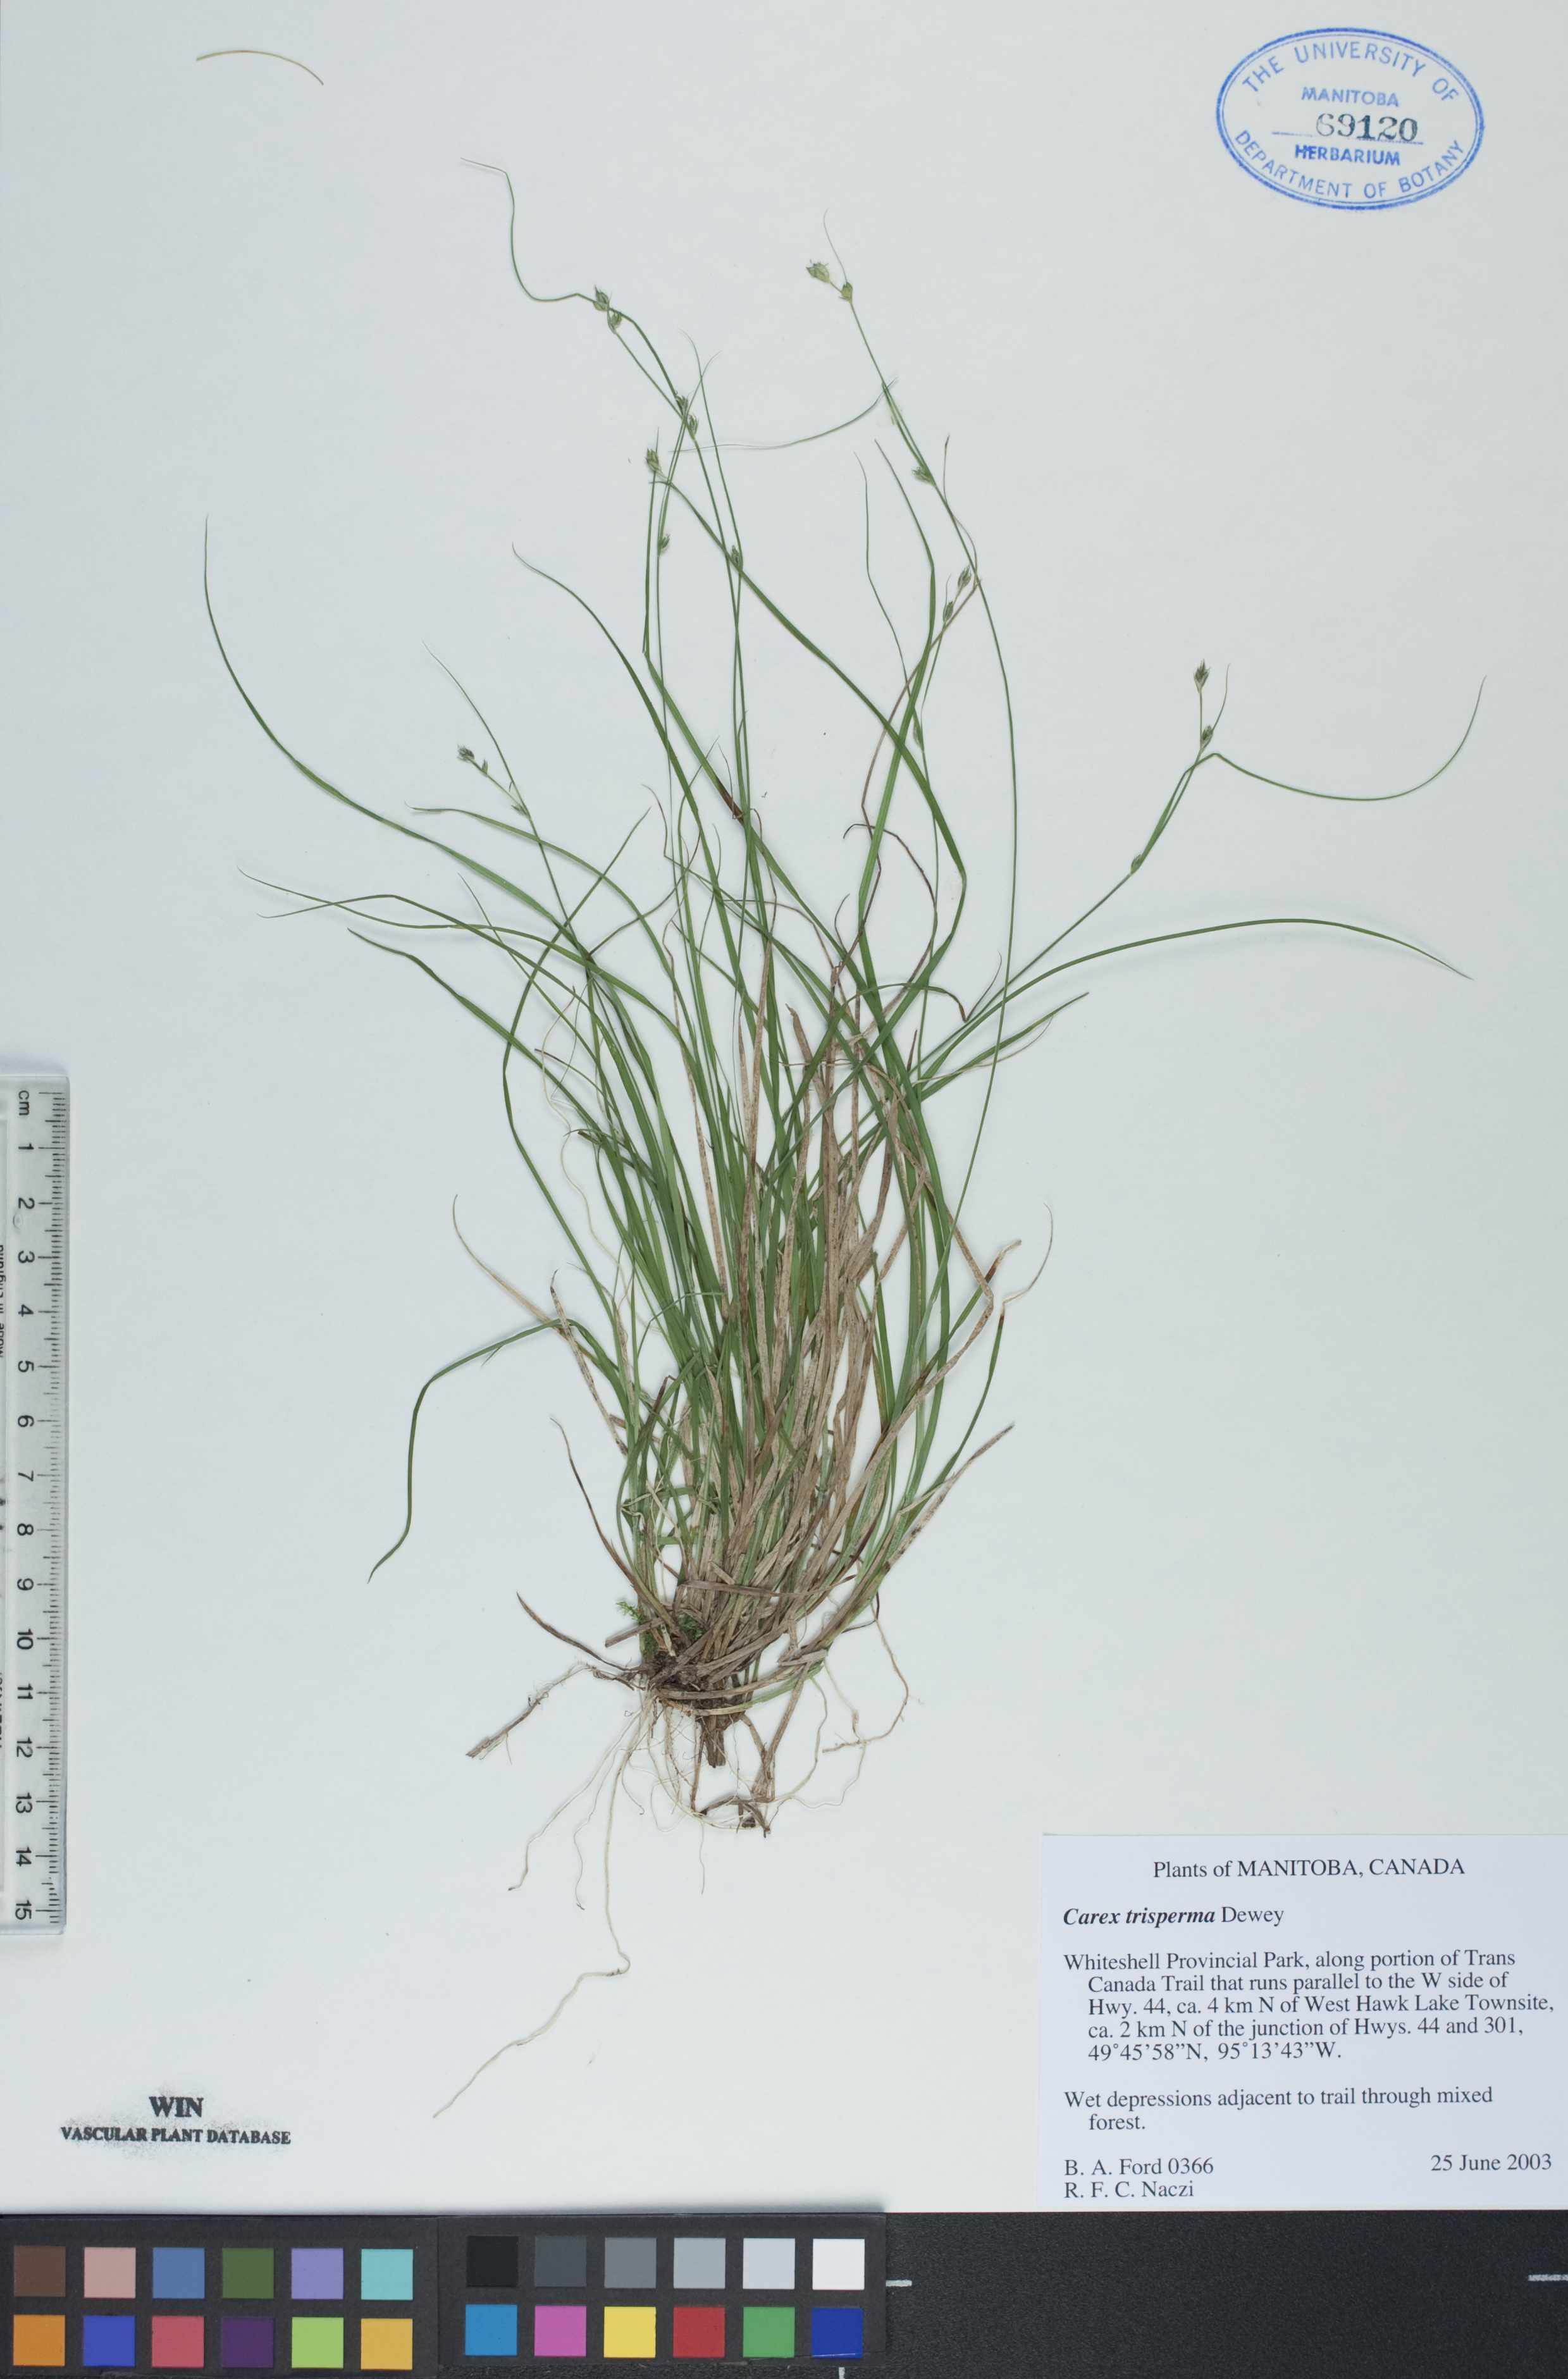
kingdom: Plantae
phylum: Tracheophyta
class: Liliopsida
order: Poales
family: Cyperaceae
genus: Carex
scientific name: Carex trisperma
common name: Three-seeded sedge
